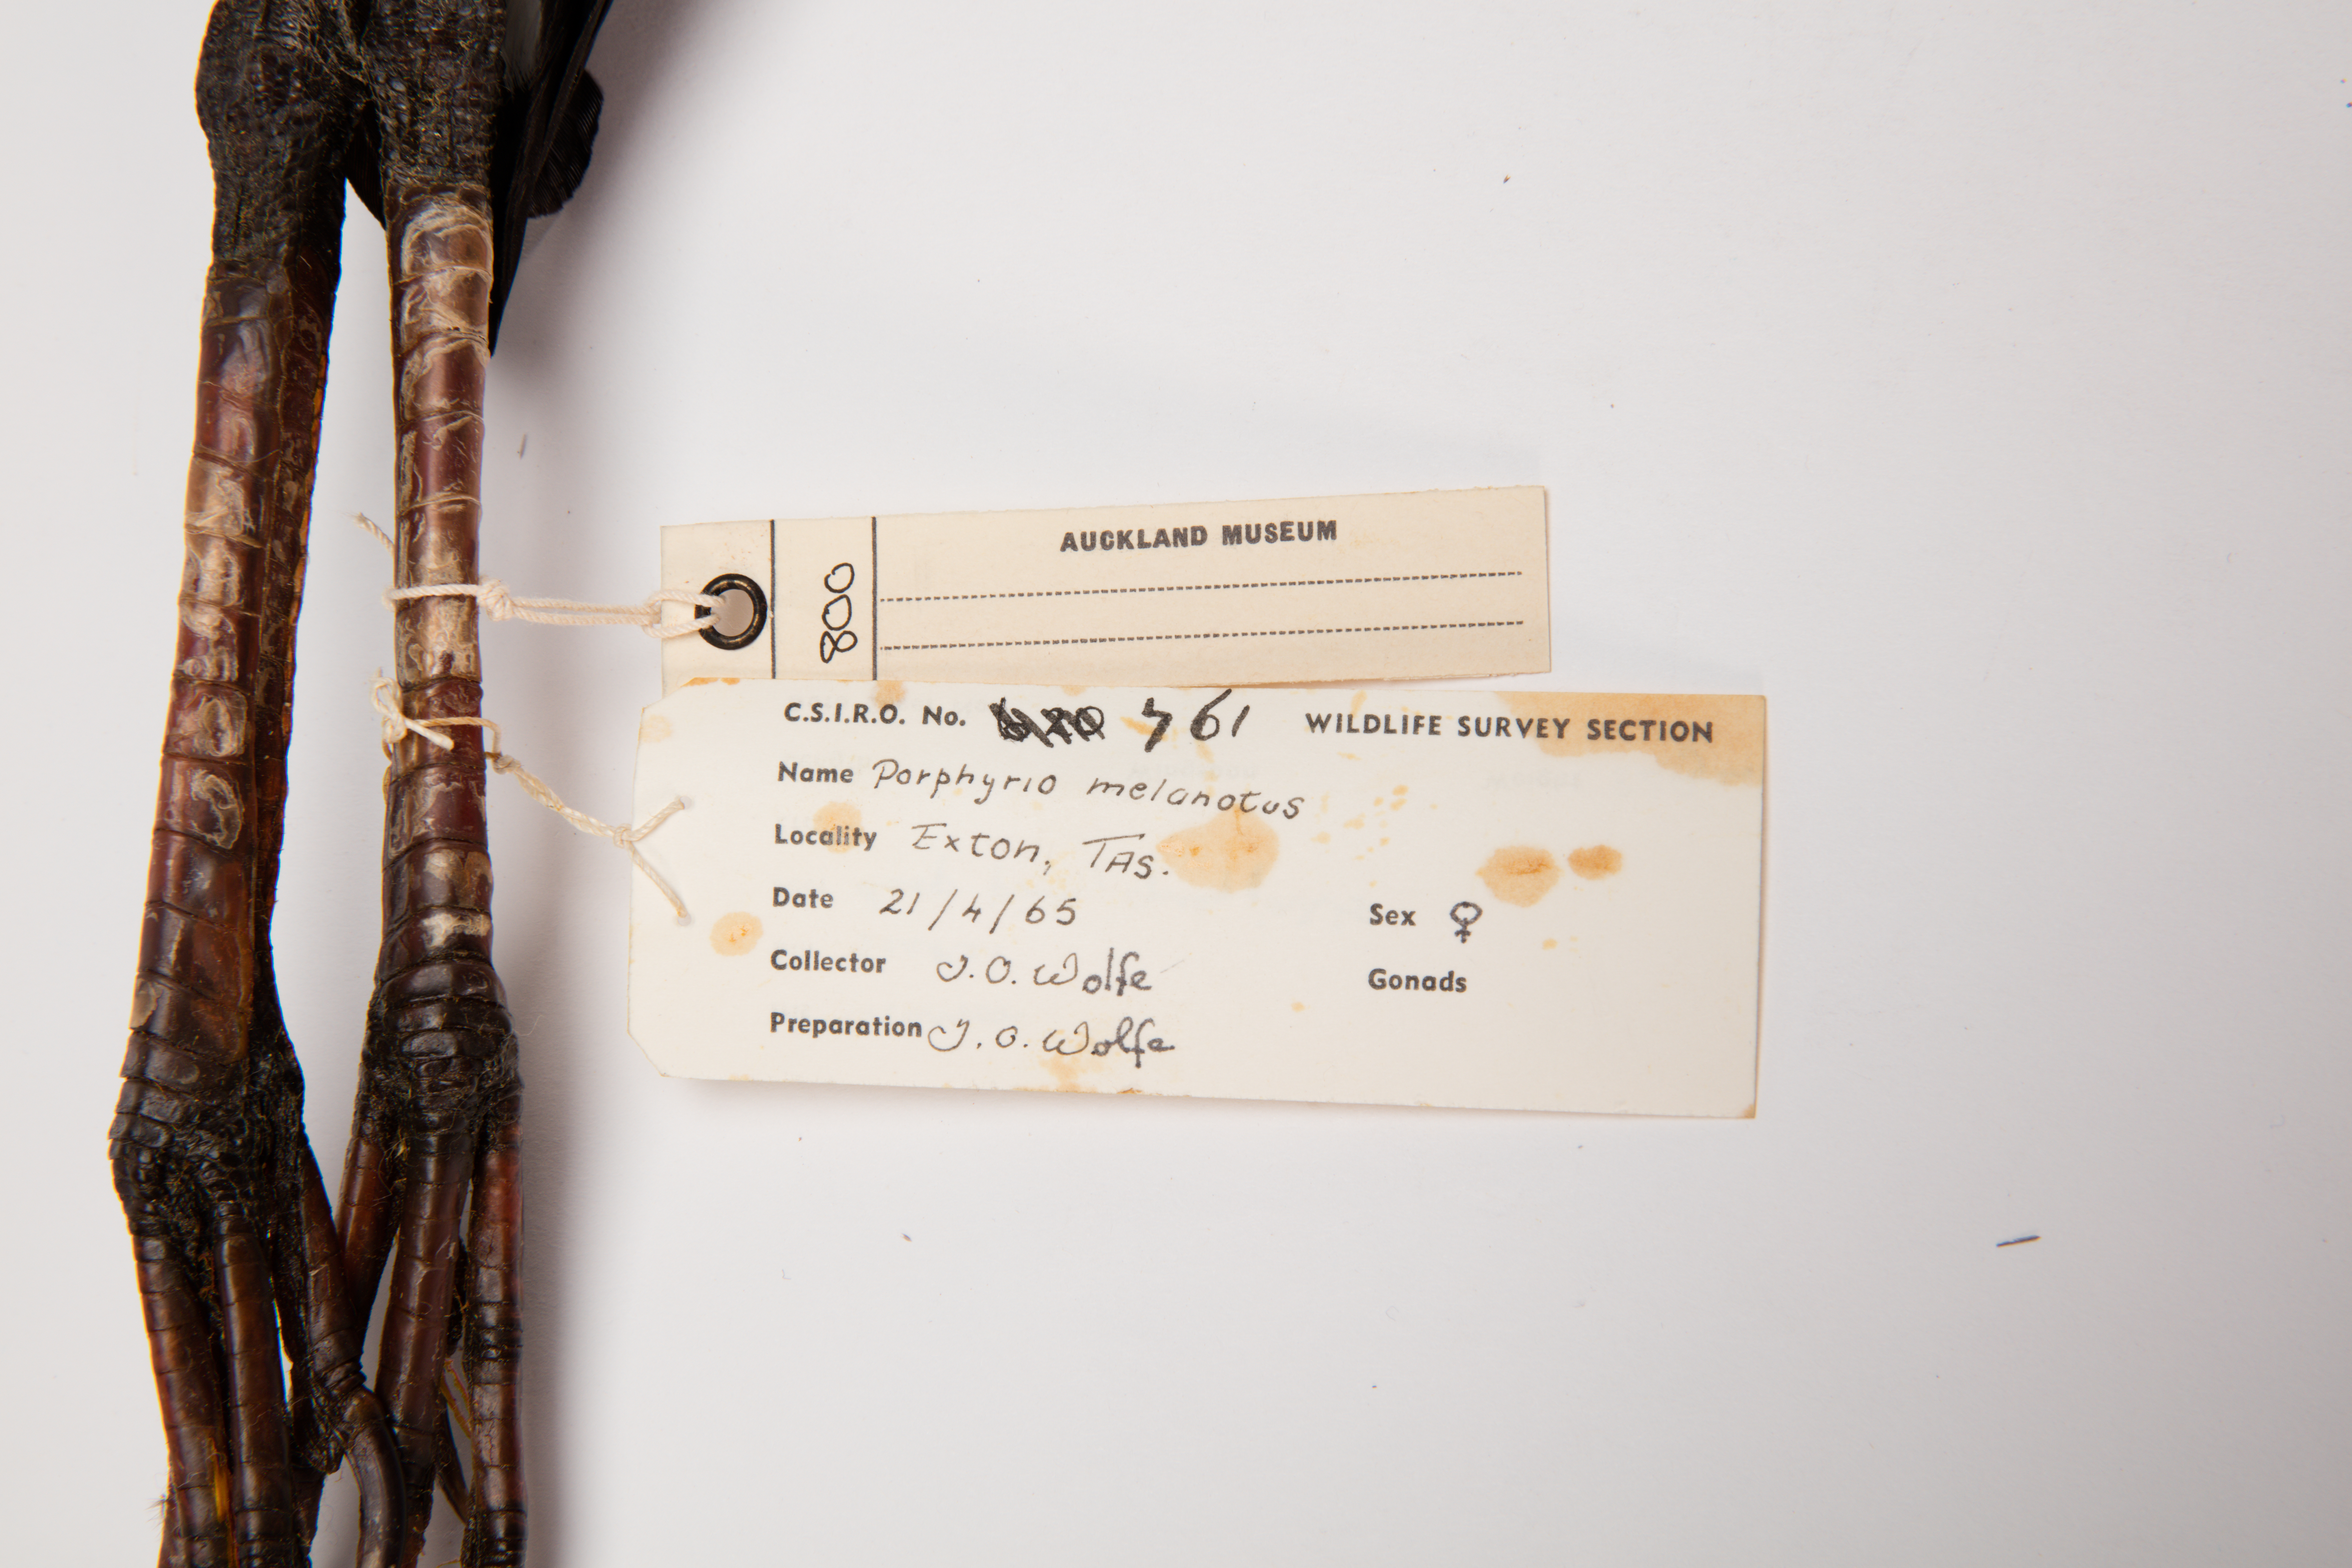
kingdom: Animalia
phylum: Chordata
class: Aves
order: Gruiformes
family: Rallidae
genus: Porphyrio
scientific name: Porphyrio melanotus
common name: Australasian swamphen
